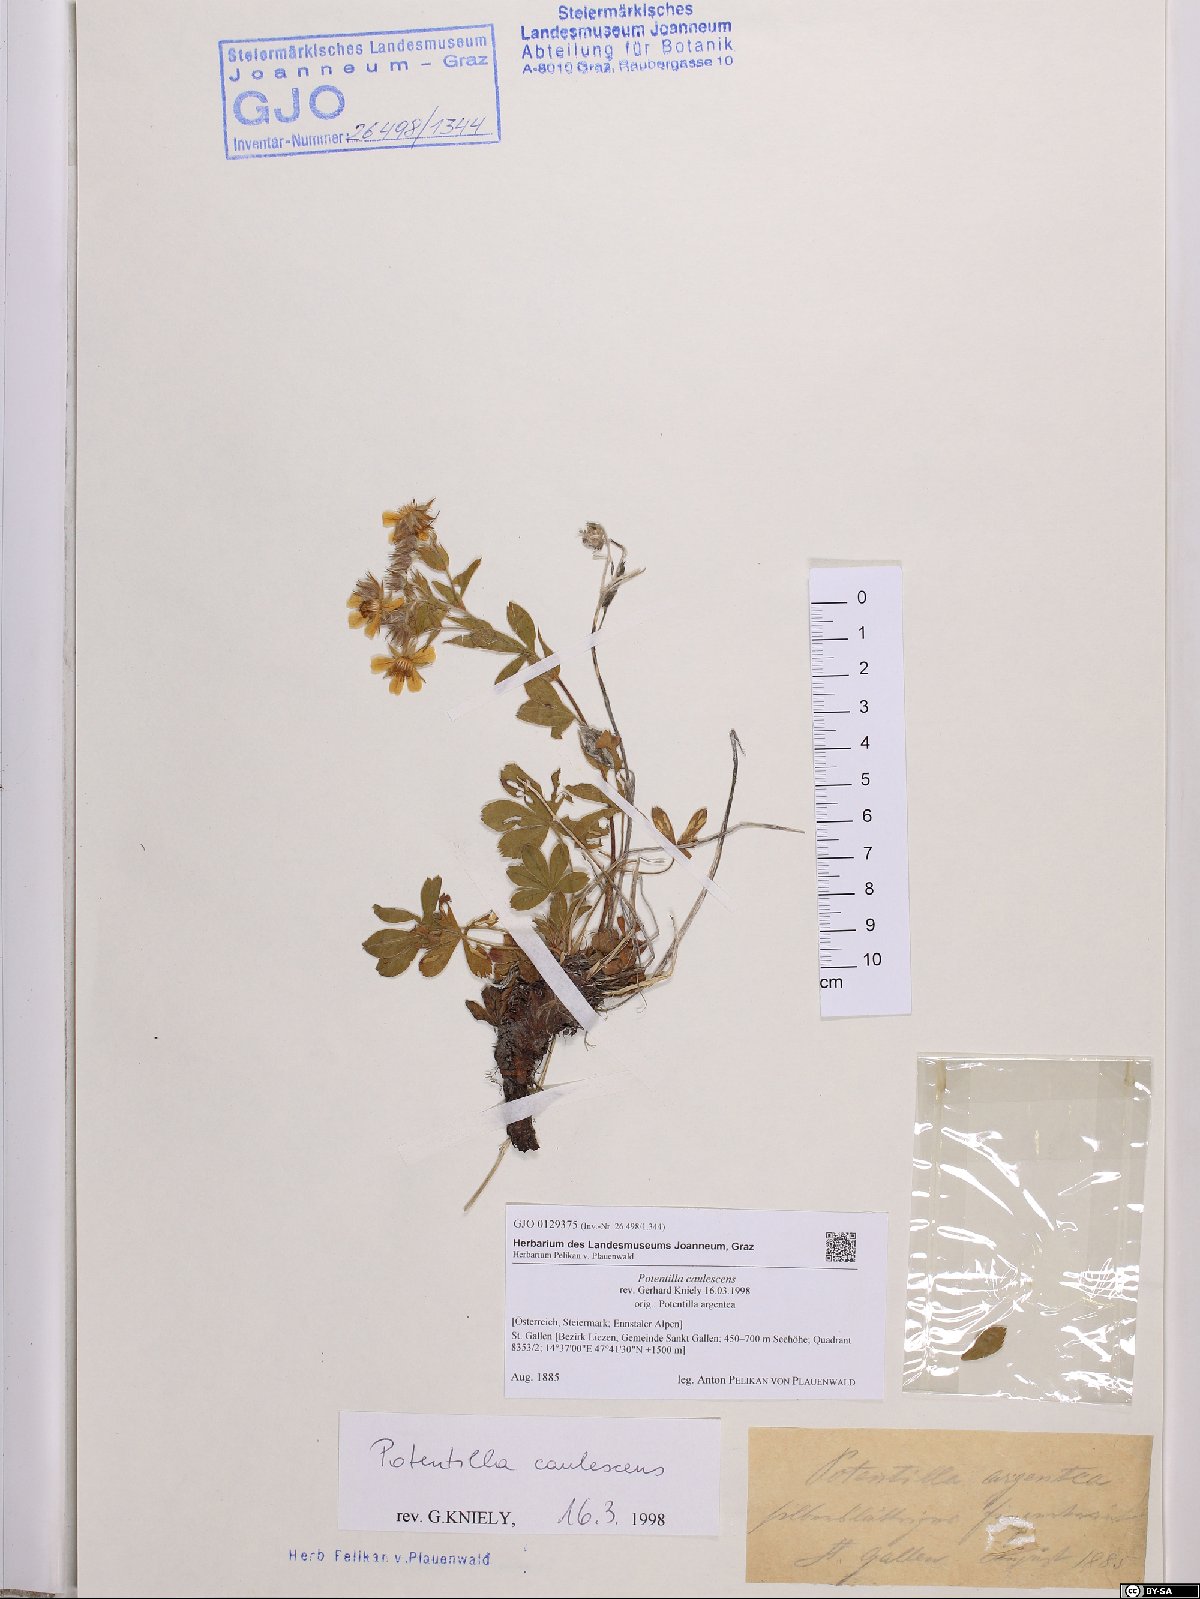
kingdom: Plantae
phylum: Tracheophyta
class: Magnoliopsida
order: Rosales
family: Rosaceae
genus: Potentilla
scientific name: Potentilla caulescens
